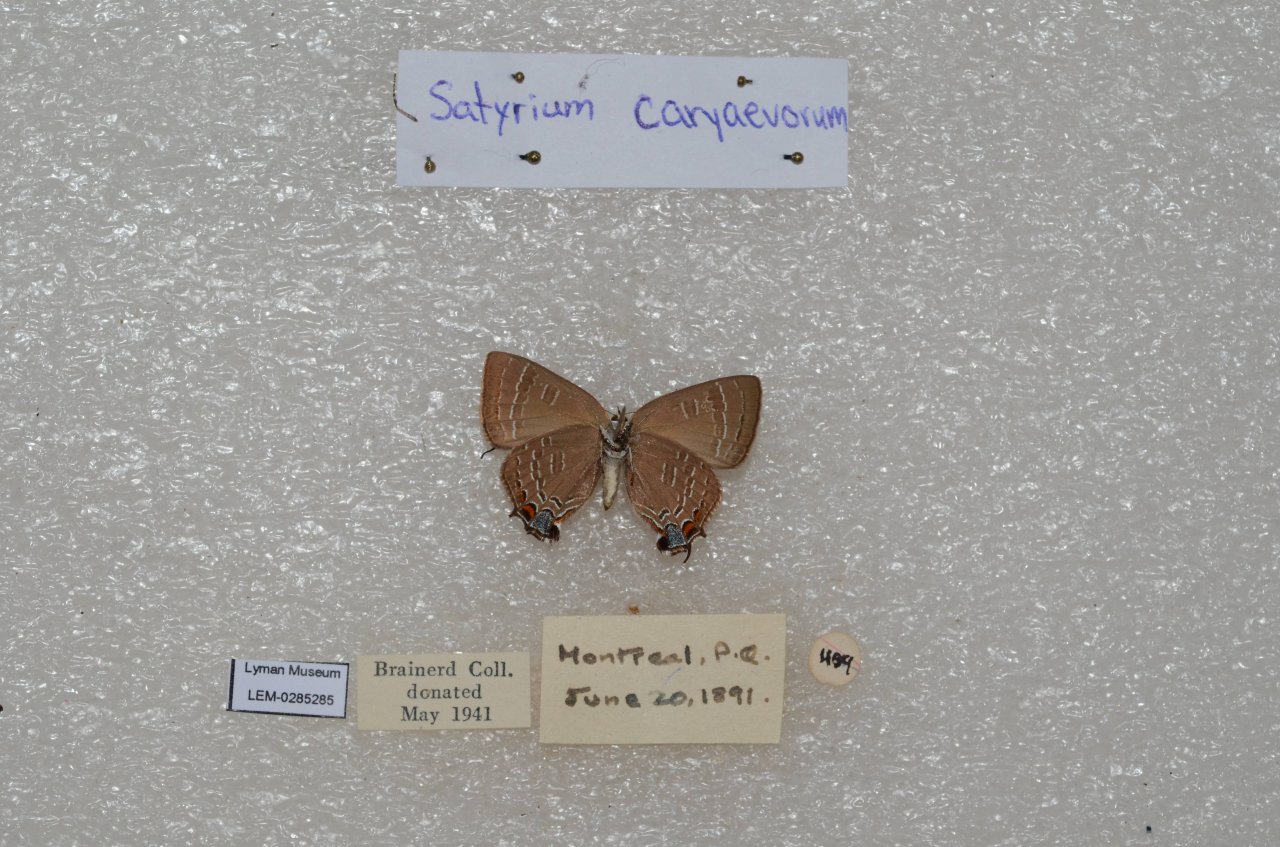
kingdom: Animalia
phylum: Arthropoda
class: Insecta
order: Lepidoptera
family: Lycaenidae
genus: Strymon
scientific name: Strymon caryaevorus
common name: Hickory Hairstreak
